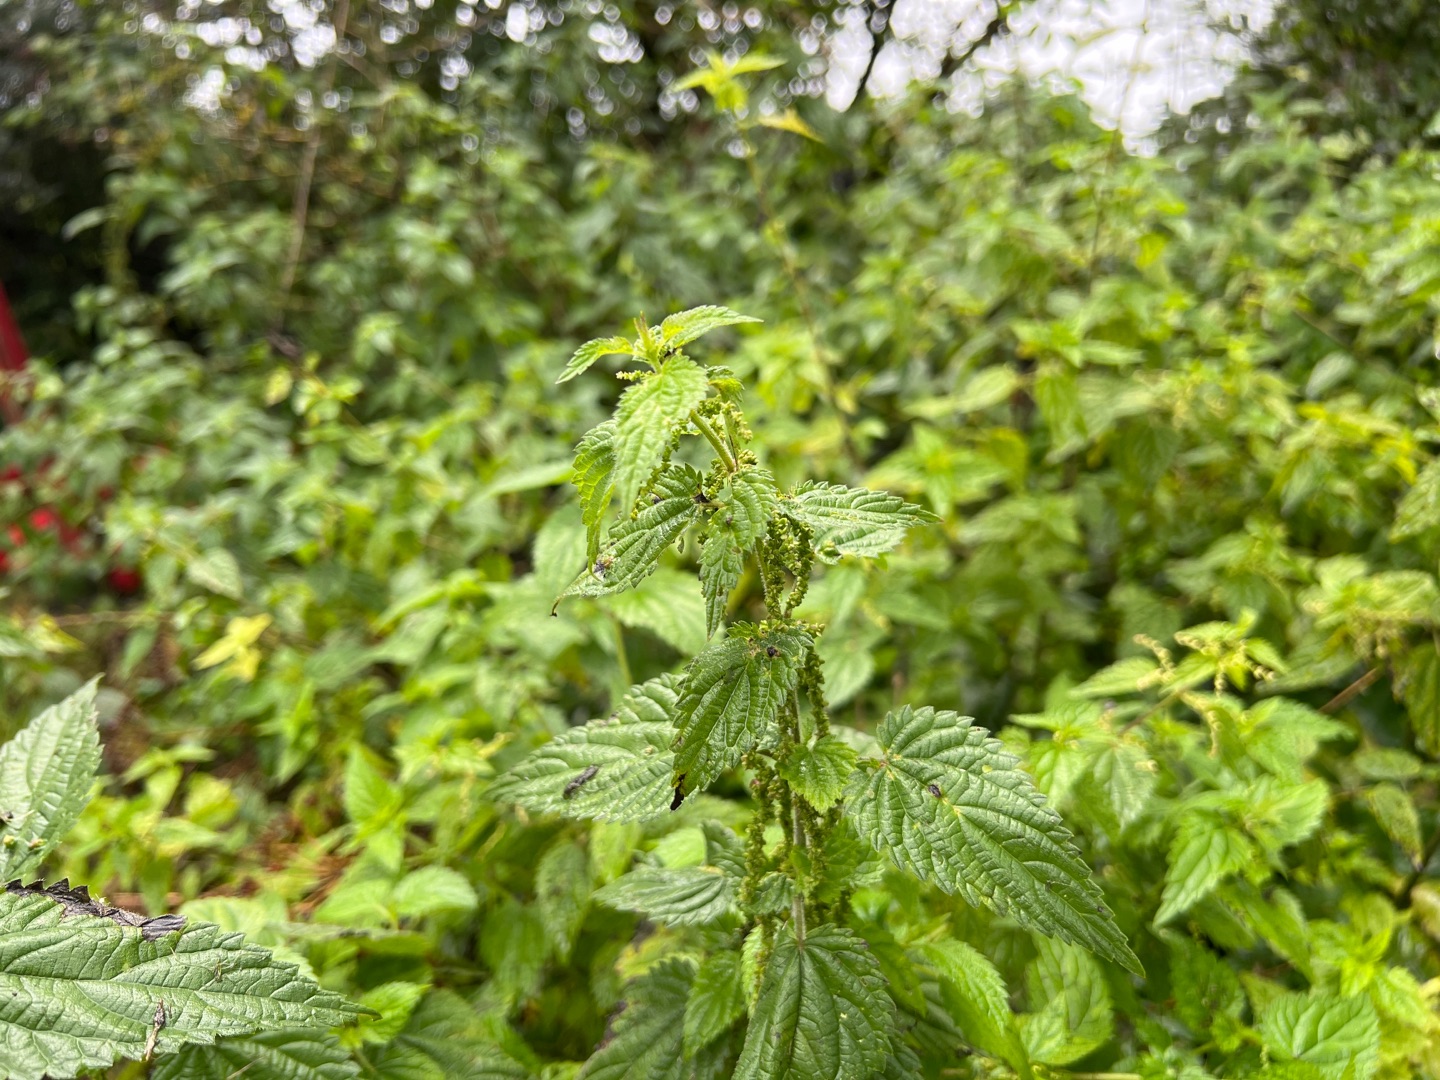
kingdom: Plantae
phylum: Tracheophyta
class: Magnoliopsida
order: Rosales
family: Urticaceae
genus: Urtica
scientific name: Urtica dioica
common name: Stor nælde
